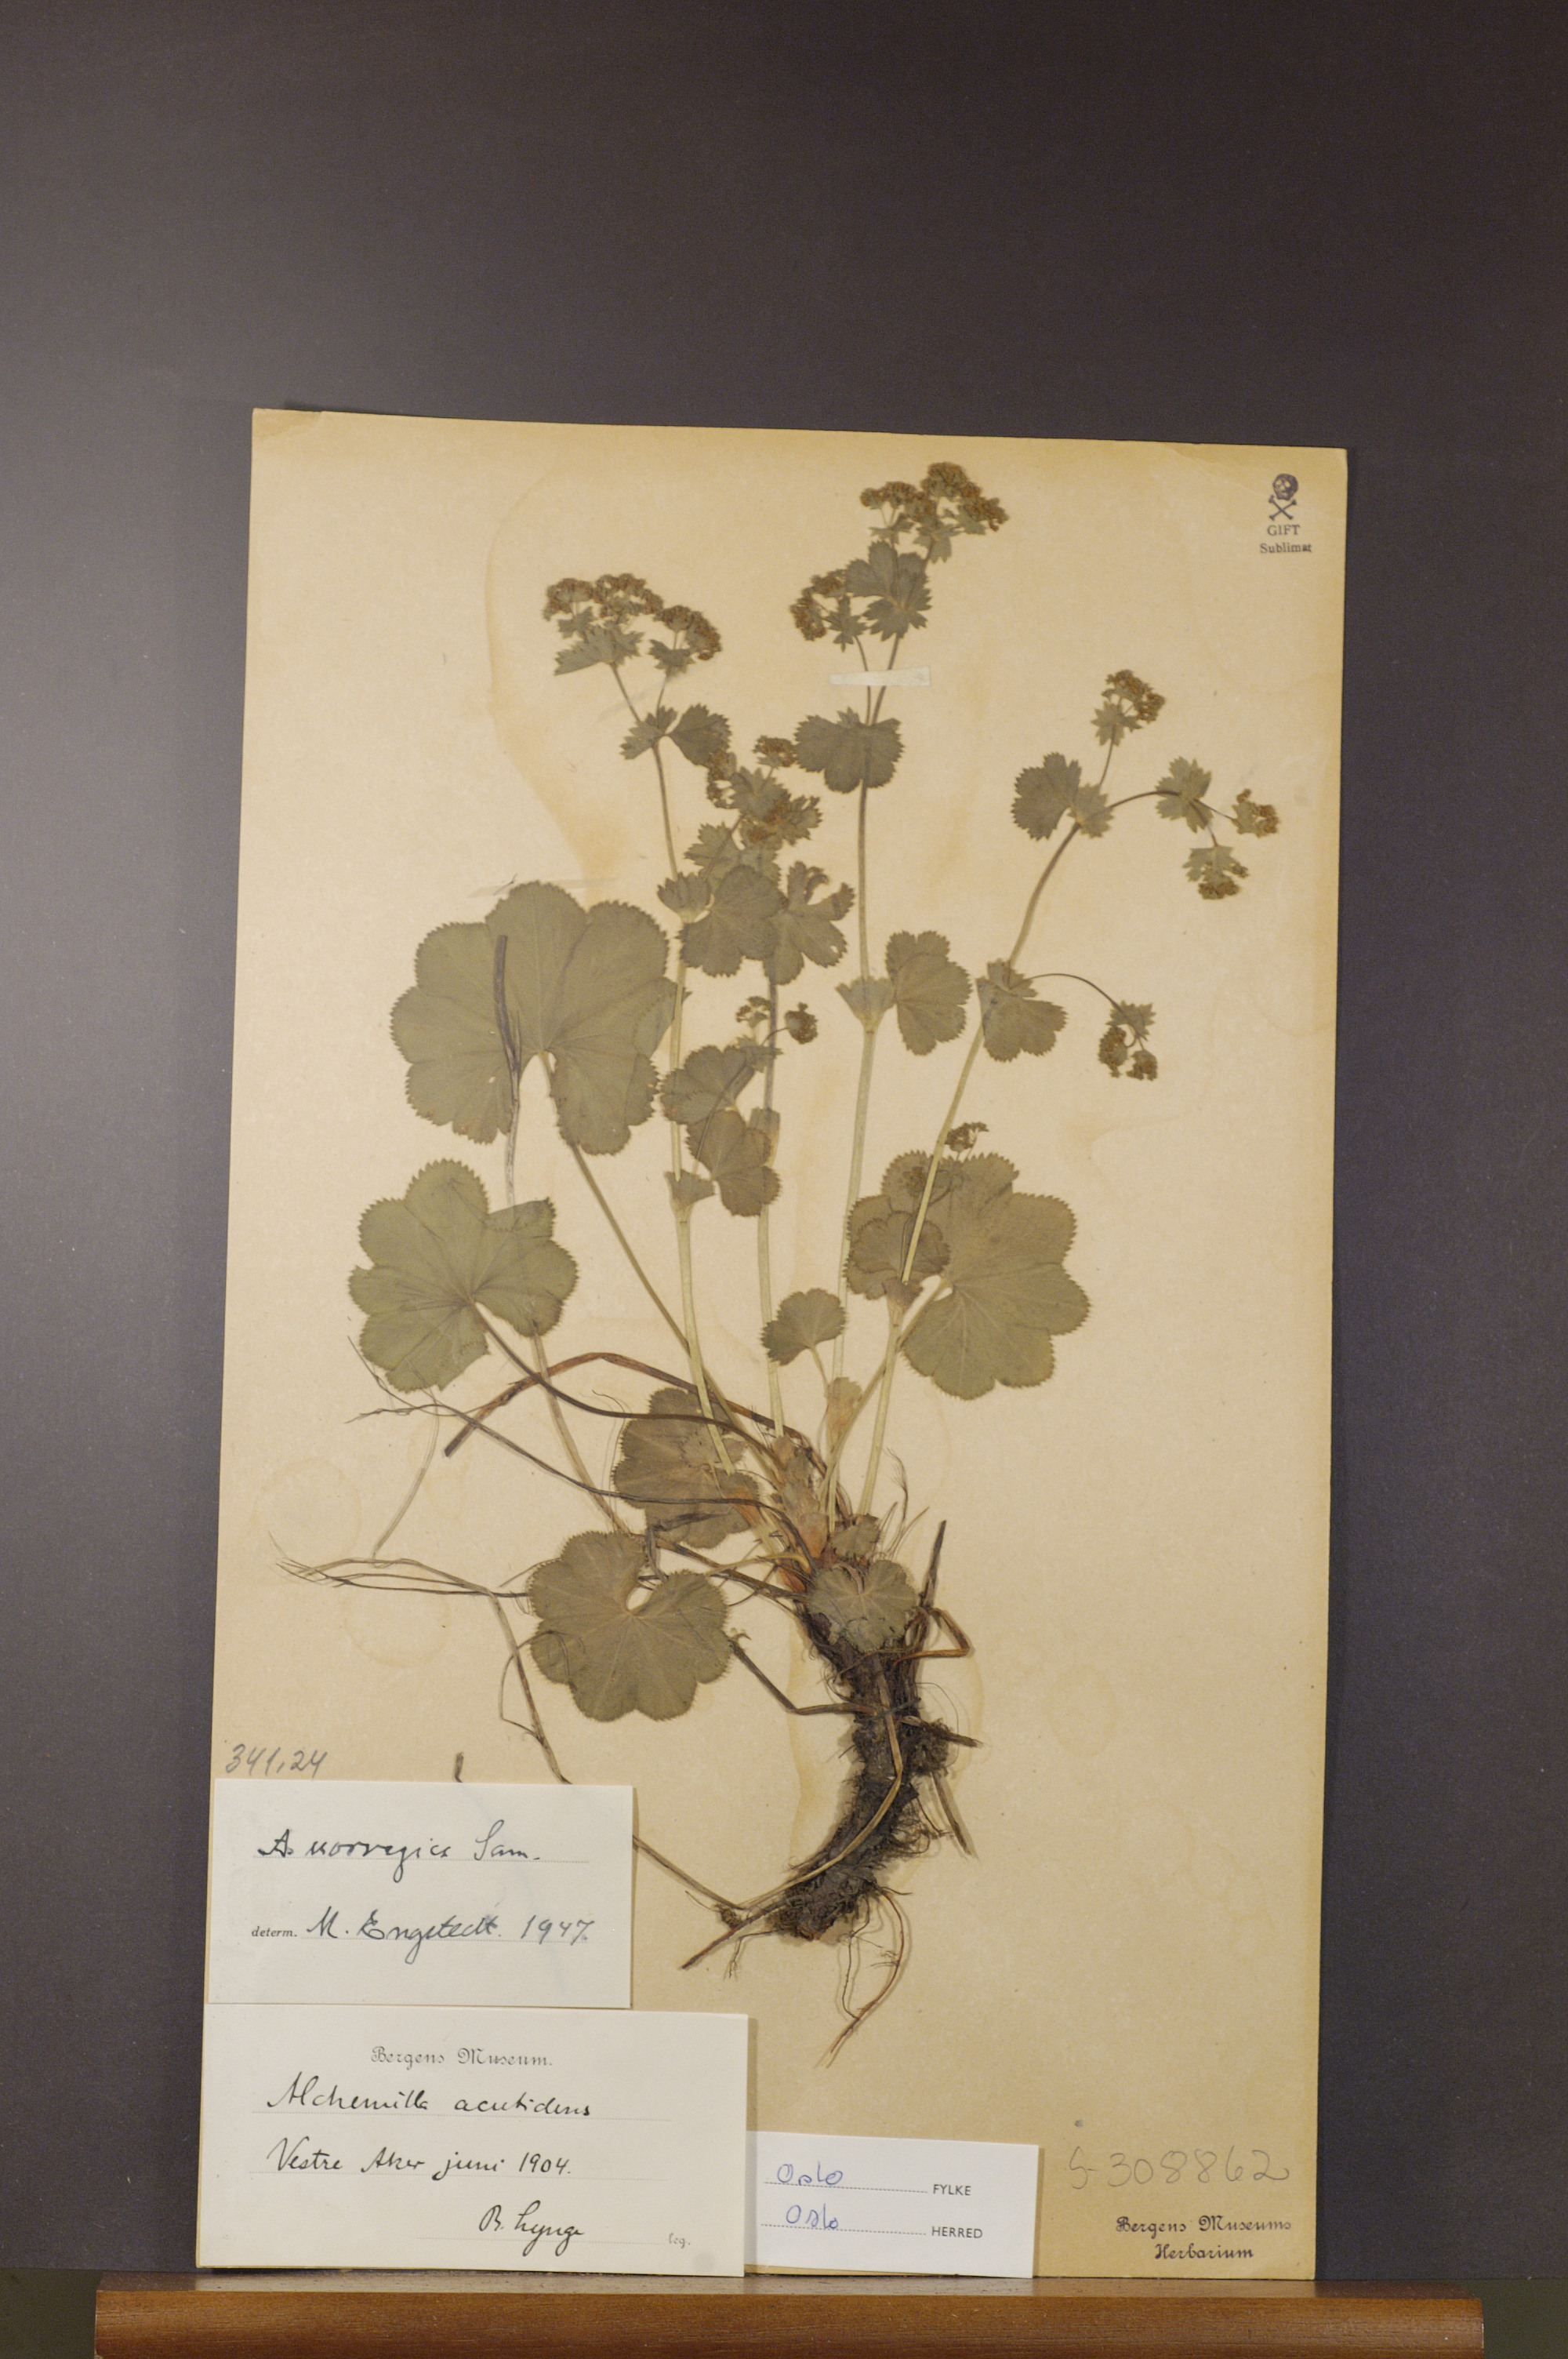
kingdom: Plantae
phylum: Tracheophyta
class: Magnoliopsida
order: Rosales
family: Rosaceae
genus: Alchemilla
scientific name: Alchemilla norvegica
